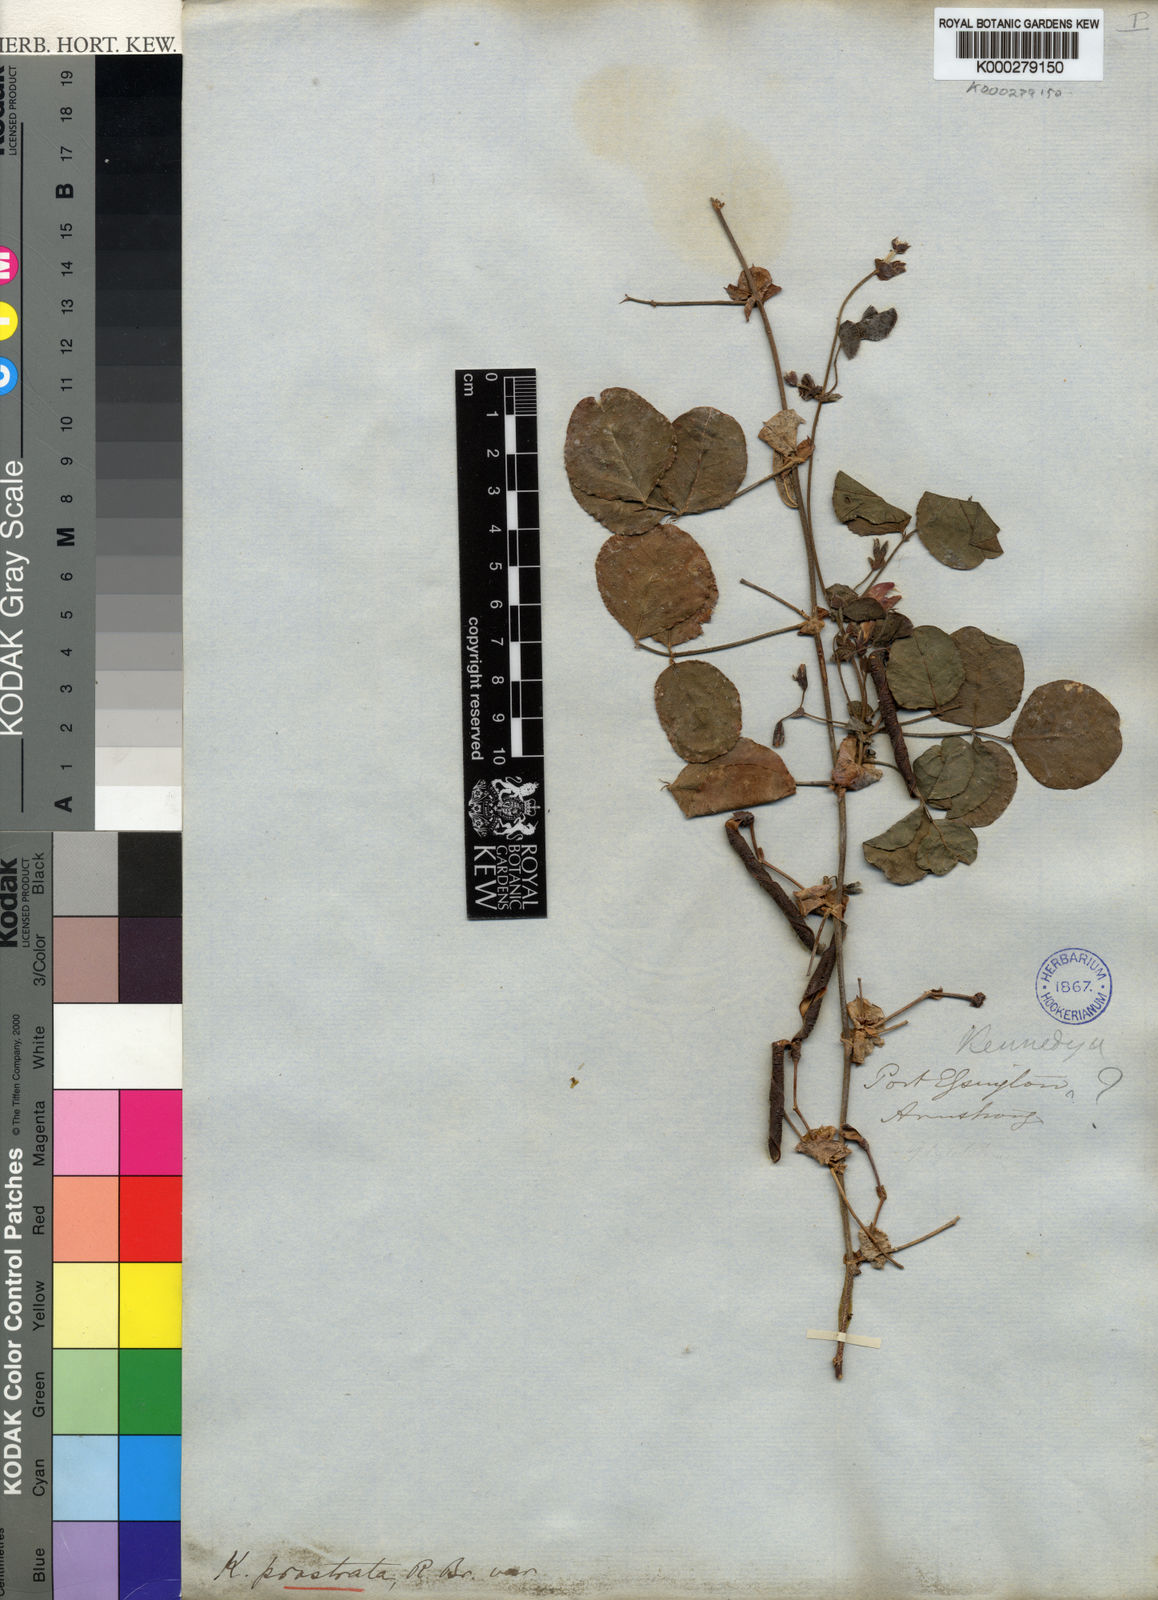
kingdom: Plantae
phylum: Tracheophyta
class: Magnoliopsida
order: Fabales
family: Fabaceae
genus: Kennedia
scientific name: Kennedia prostrata
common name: Running-postman
